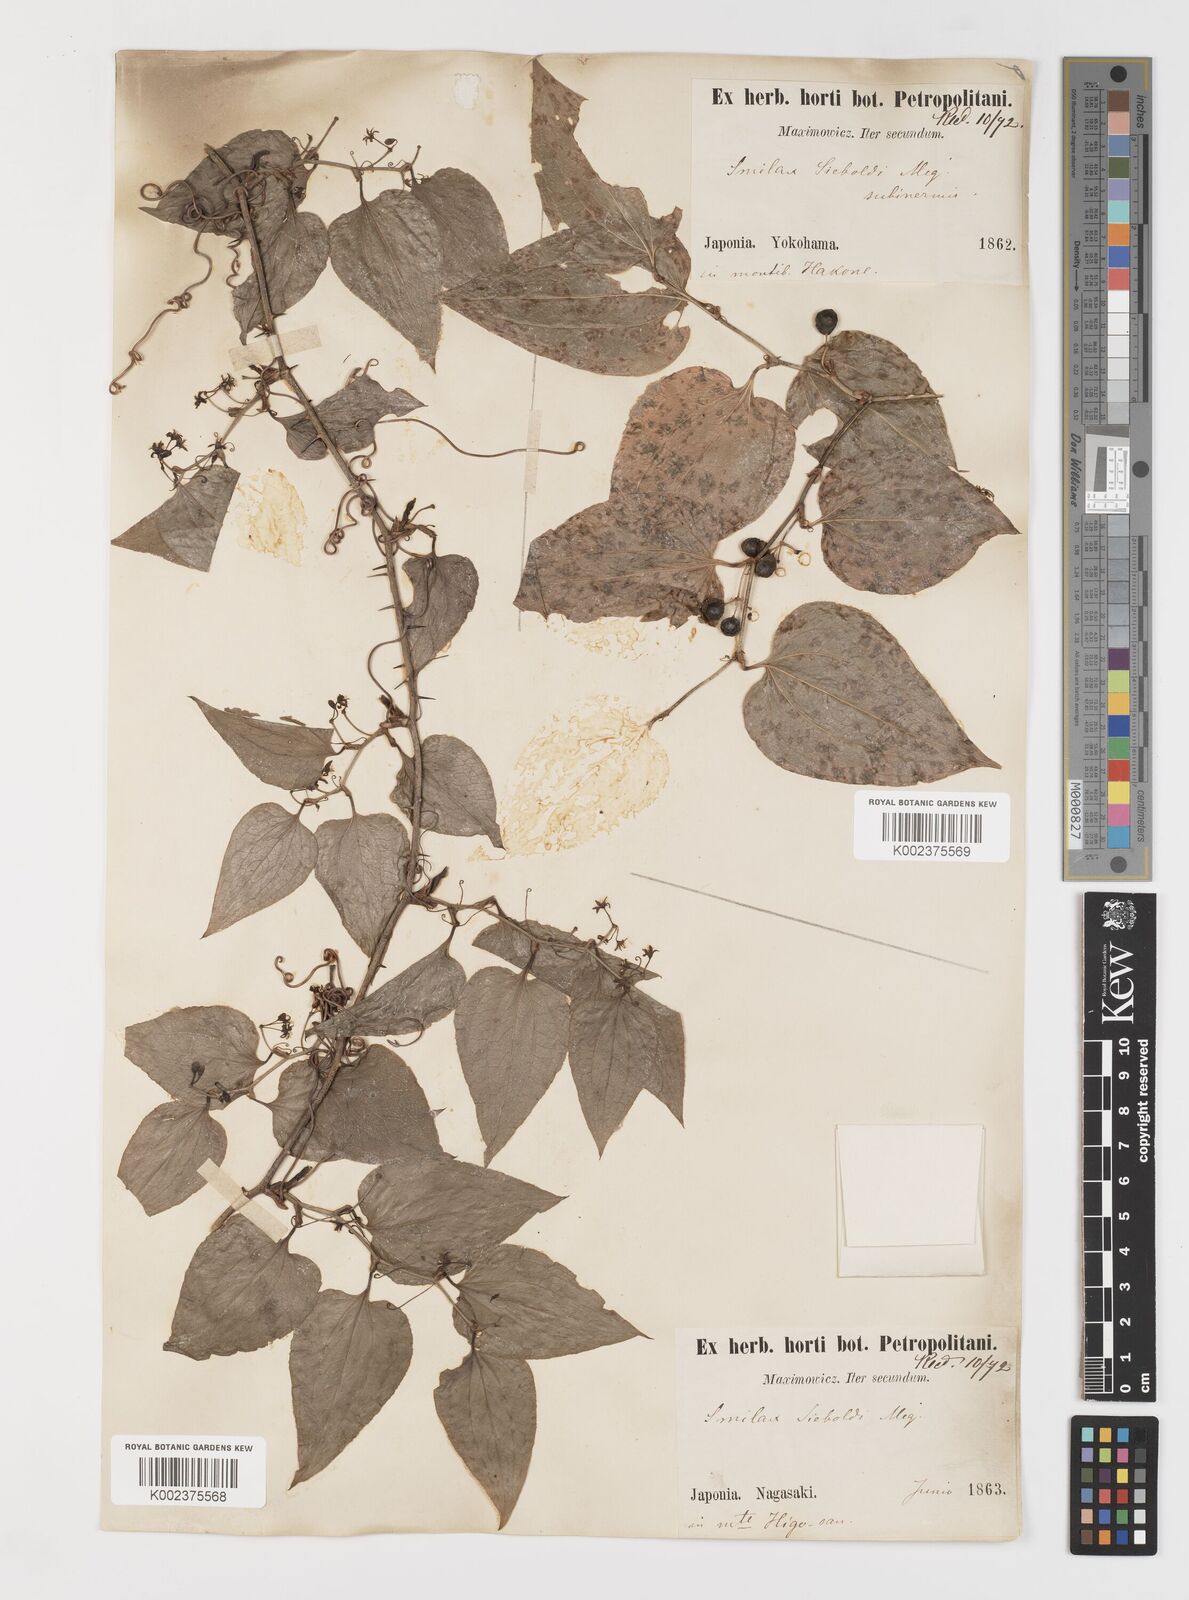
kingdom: Plantae
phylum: Tracheophyta
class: Liliopsida
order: Liliales
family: Smilacaceae
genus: Smilax
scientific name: Smilax sieboldii
